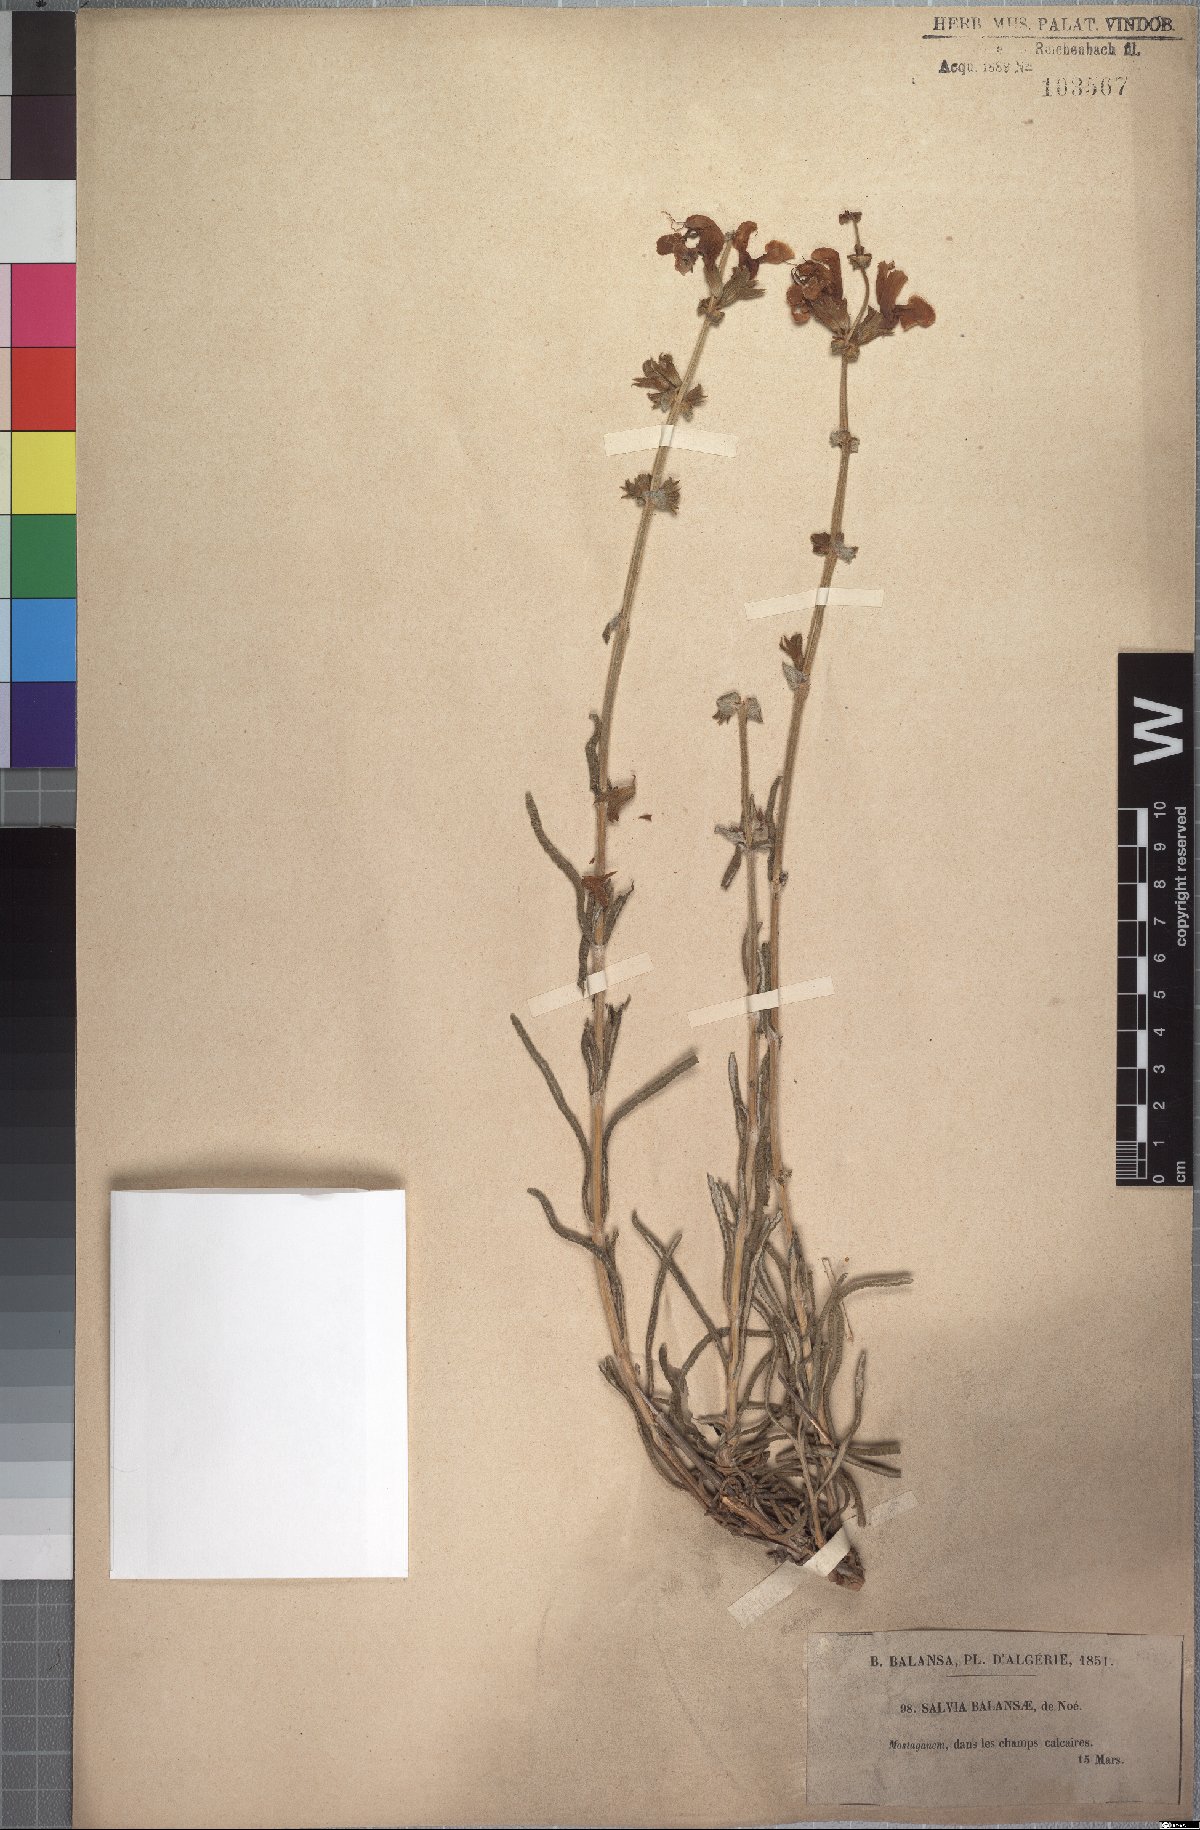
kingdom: Plantae
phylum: Tracheophyta
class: Magnoliopsida
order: Lamiales
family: Lamiaceae
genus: Salvia
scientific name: Salvia balansae
